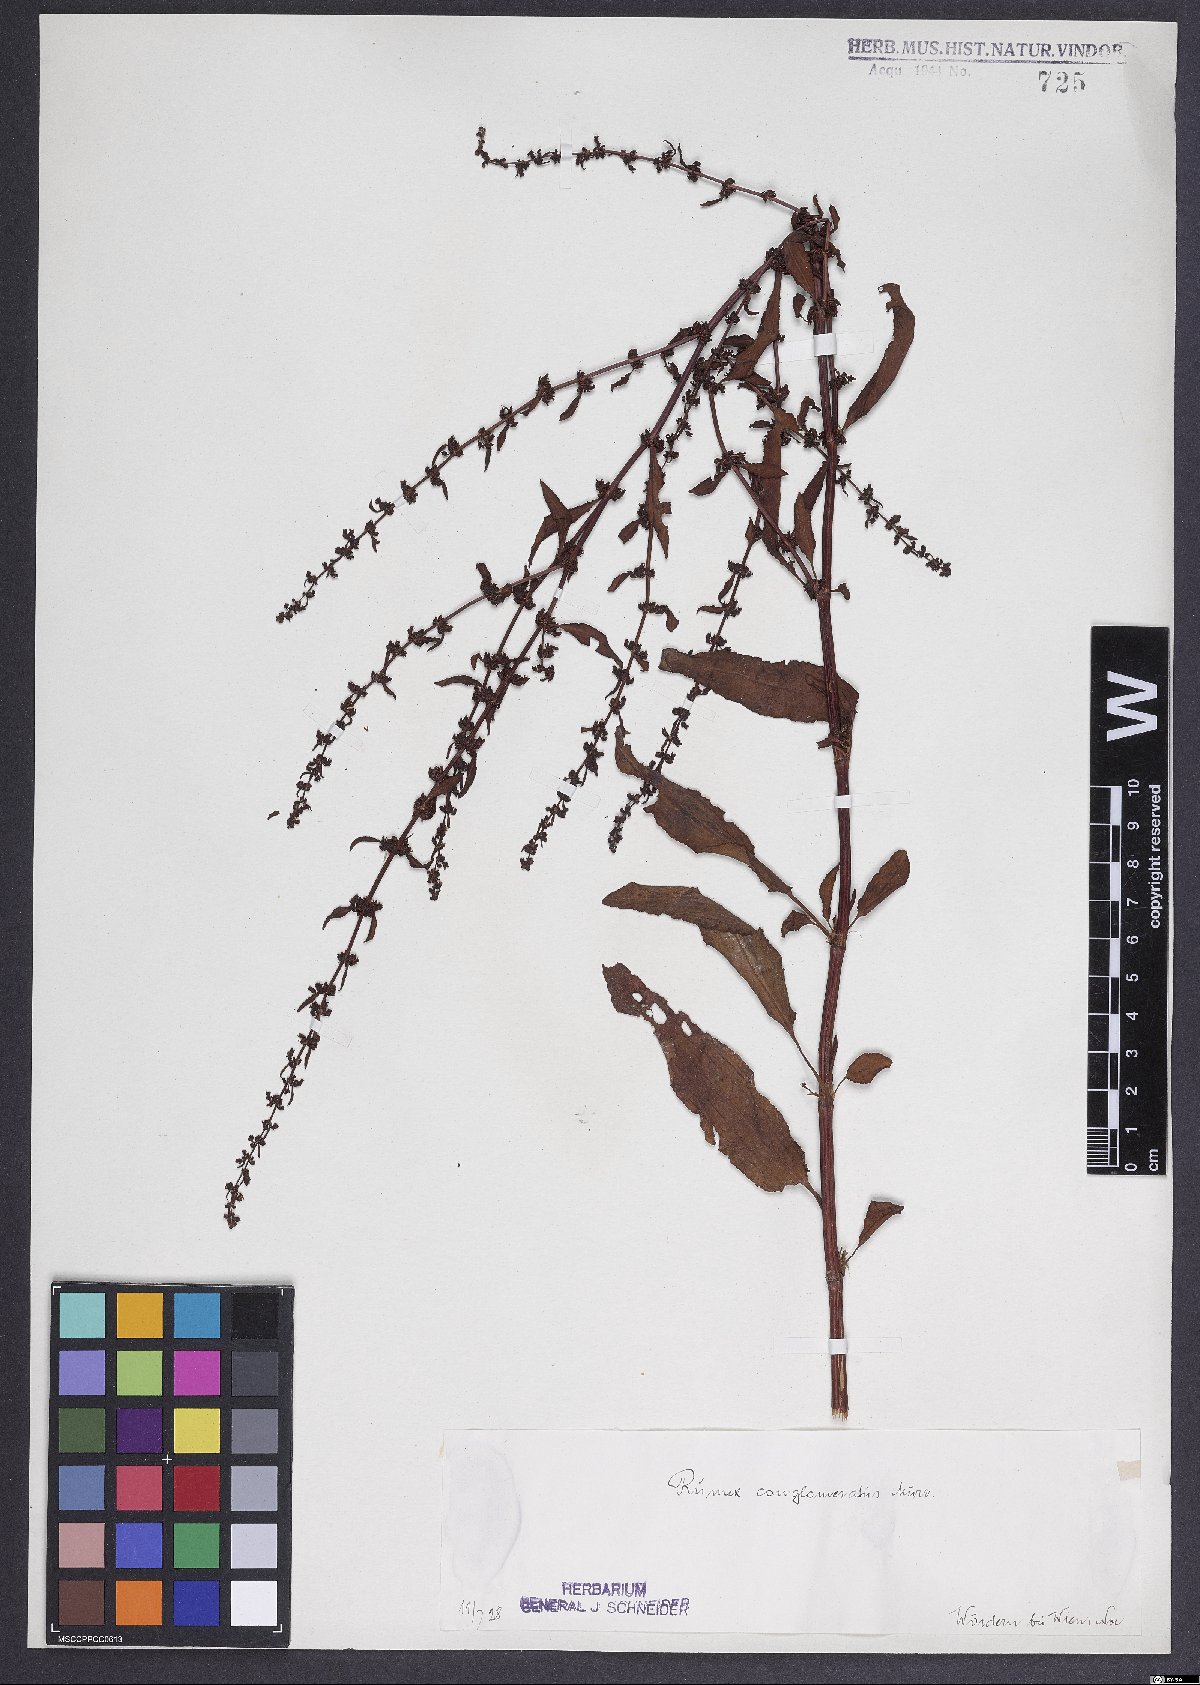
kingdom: Plantae
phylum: Tracheophyta
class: Magnoliopsida
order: Caryophyllales
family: Polygonaceae
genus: Rumex
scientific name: Rumex conglomeratus
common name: Clustered dock
